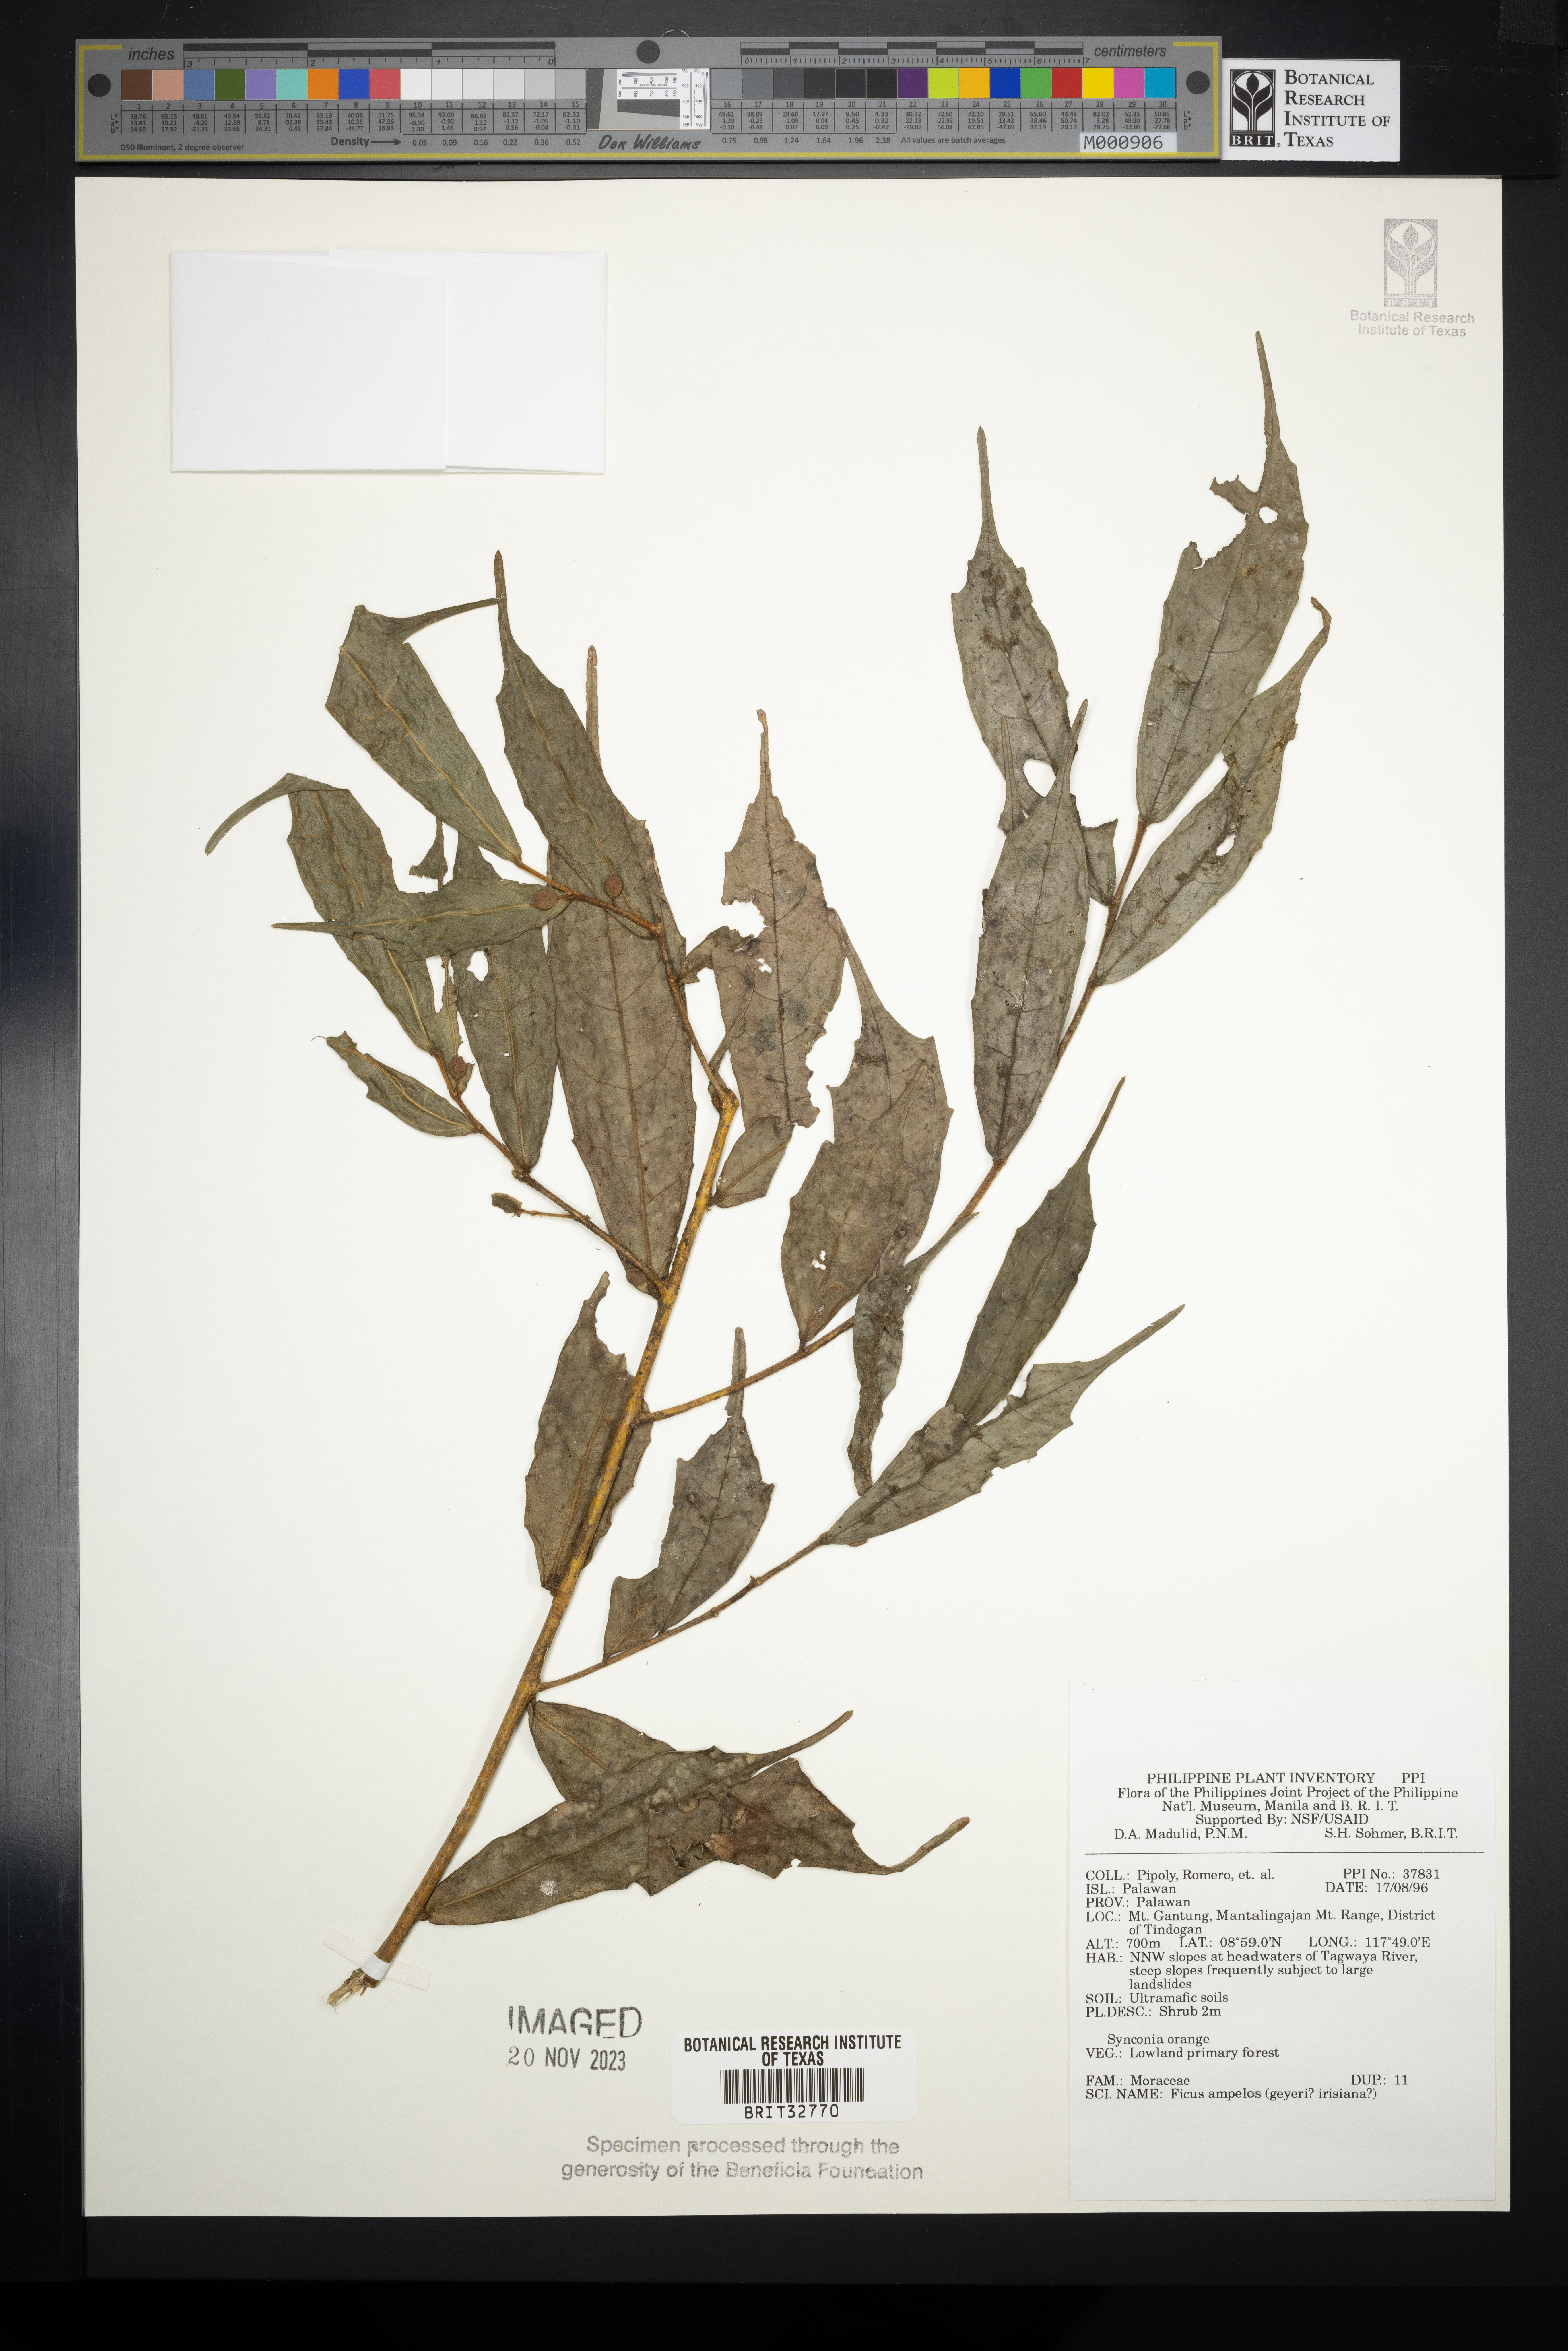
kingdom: Plantae
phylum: Tracheophyta
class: Magnoliopsida
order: Rosales
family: Moraceae
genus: Ficus
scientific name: Ficus ampelos
